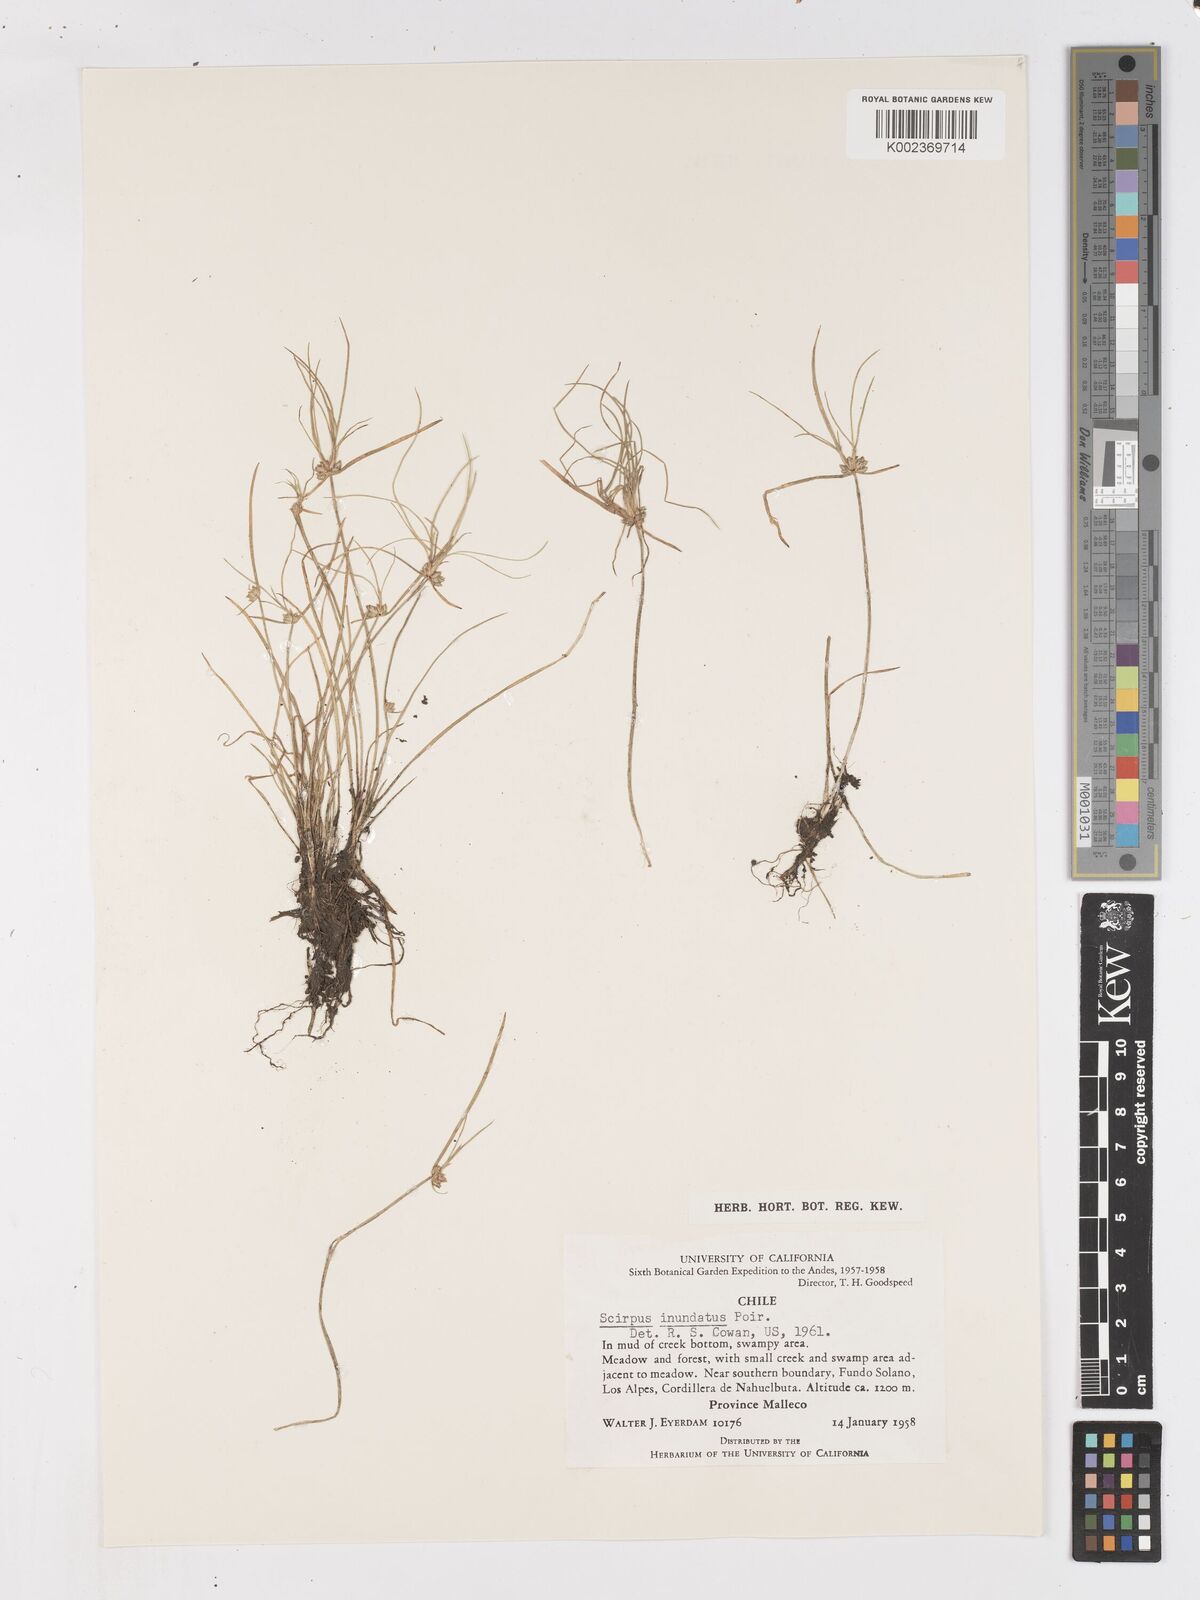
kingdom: Plantae
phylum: Tracheophyta
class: Liliopsida
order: Poales
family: Cyperaceae
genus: Isolepis
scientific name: Isolepis inundata
